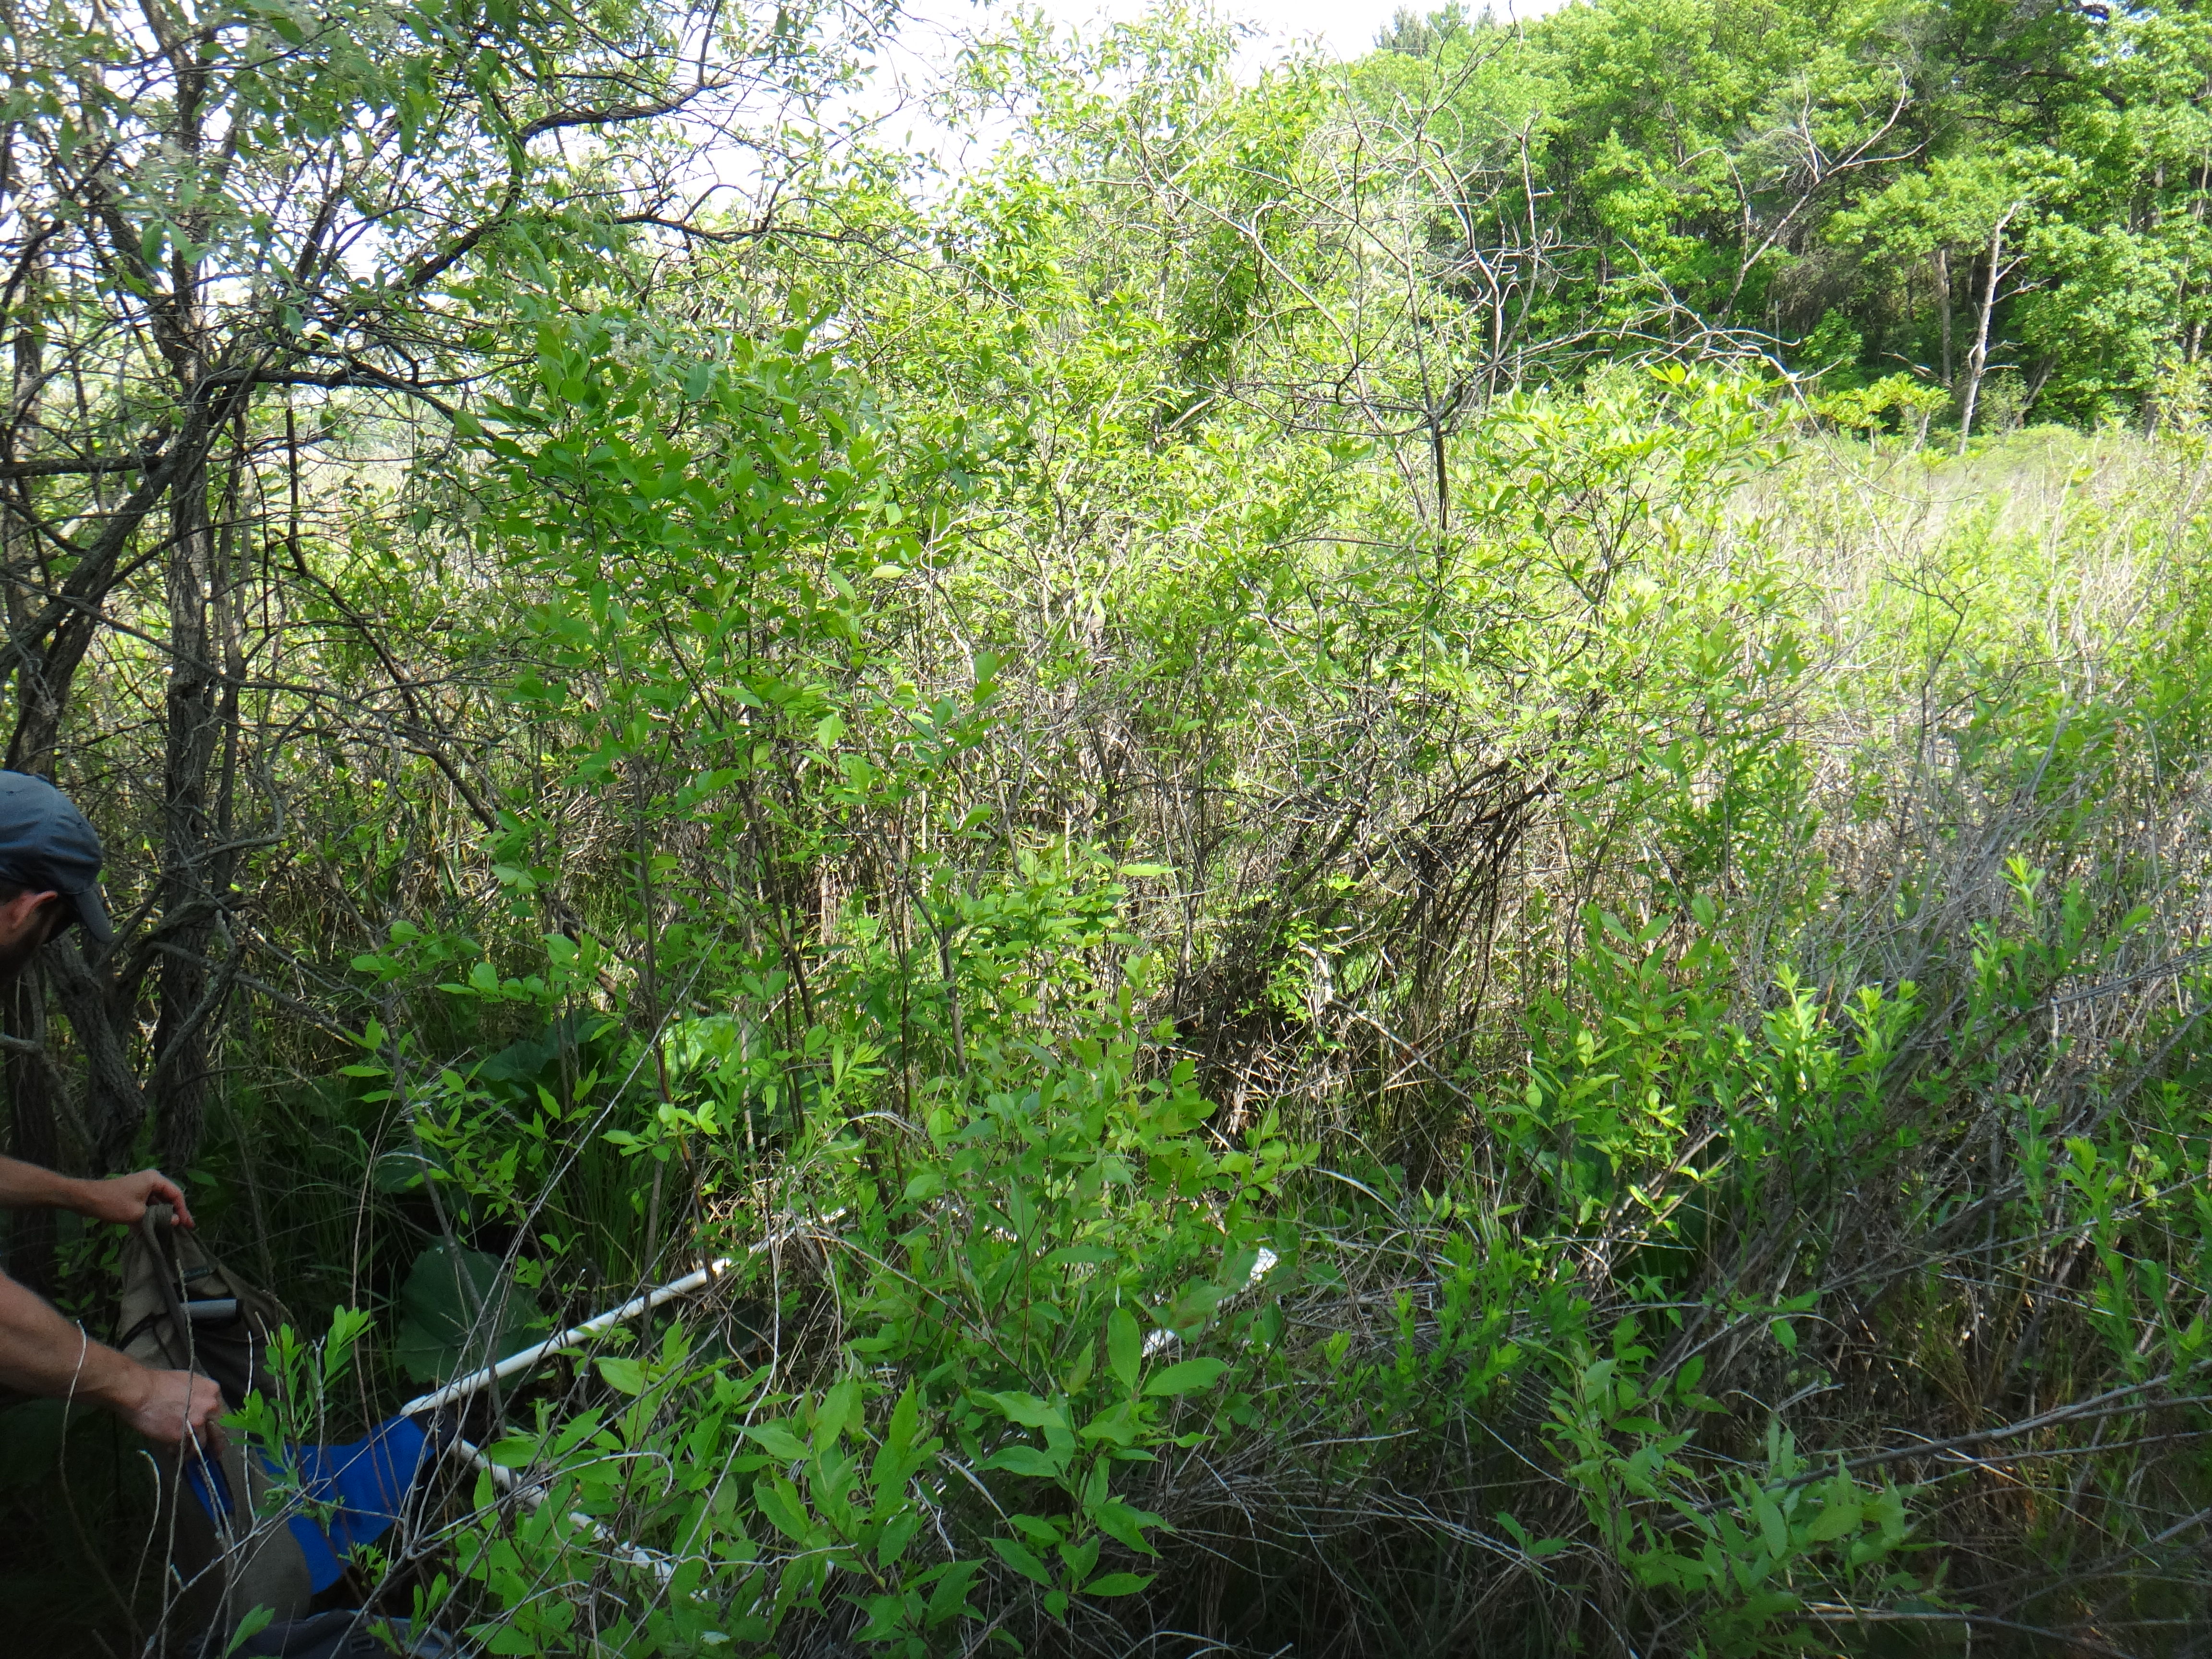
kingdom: Plantae
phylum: Tracheophyta
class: Liliopsida
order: Alismatales
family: Araceae
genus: Symplocarpus
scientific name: Symplocarpus foetidus
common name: Eastern skunk cabbage
